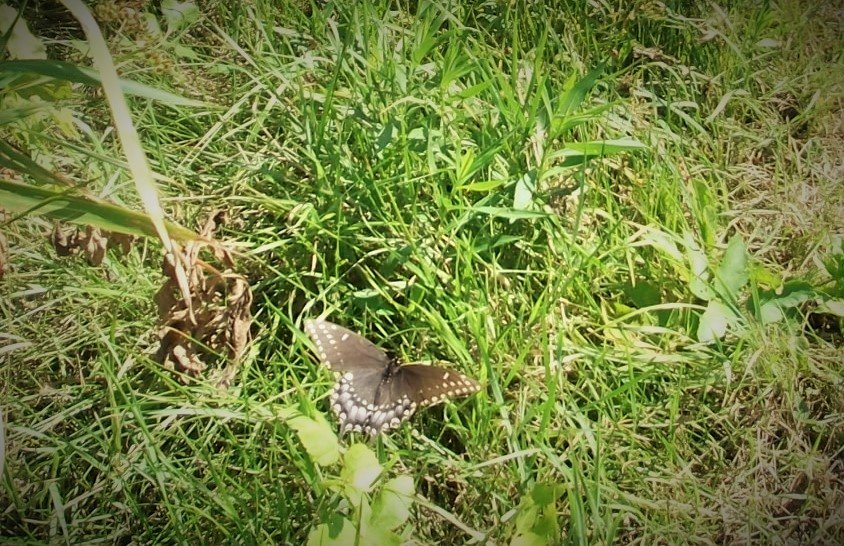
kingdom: Animalia
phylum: Arthropoda
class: Insecta
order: Lepidoptera
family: Papilionidae
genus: Papilio
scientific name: Papilio polyxenes
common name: Black Swallowtail
